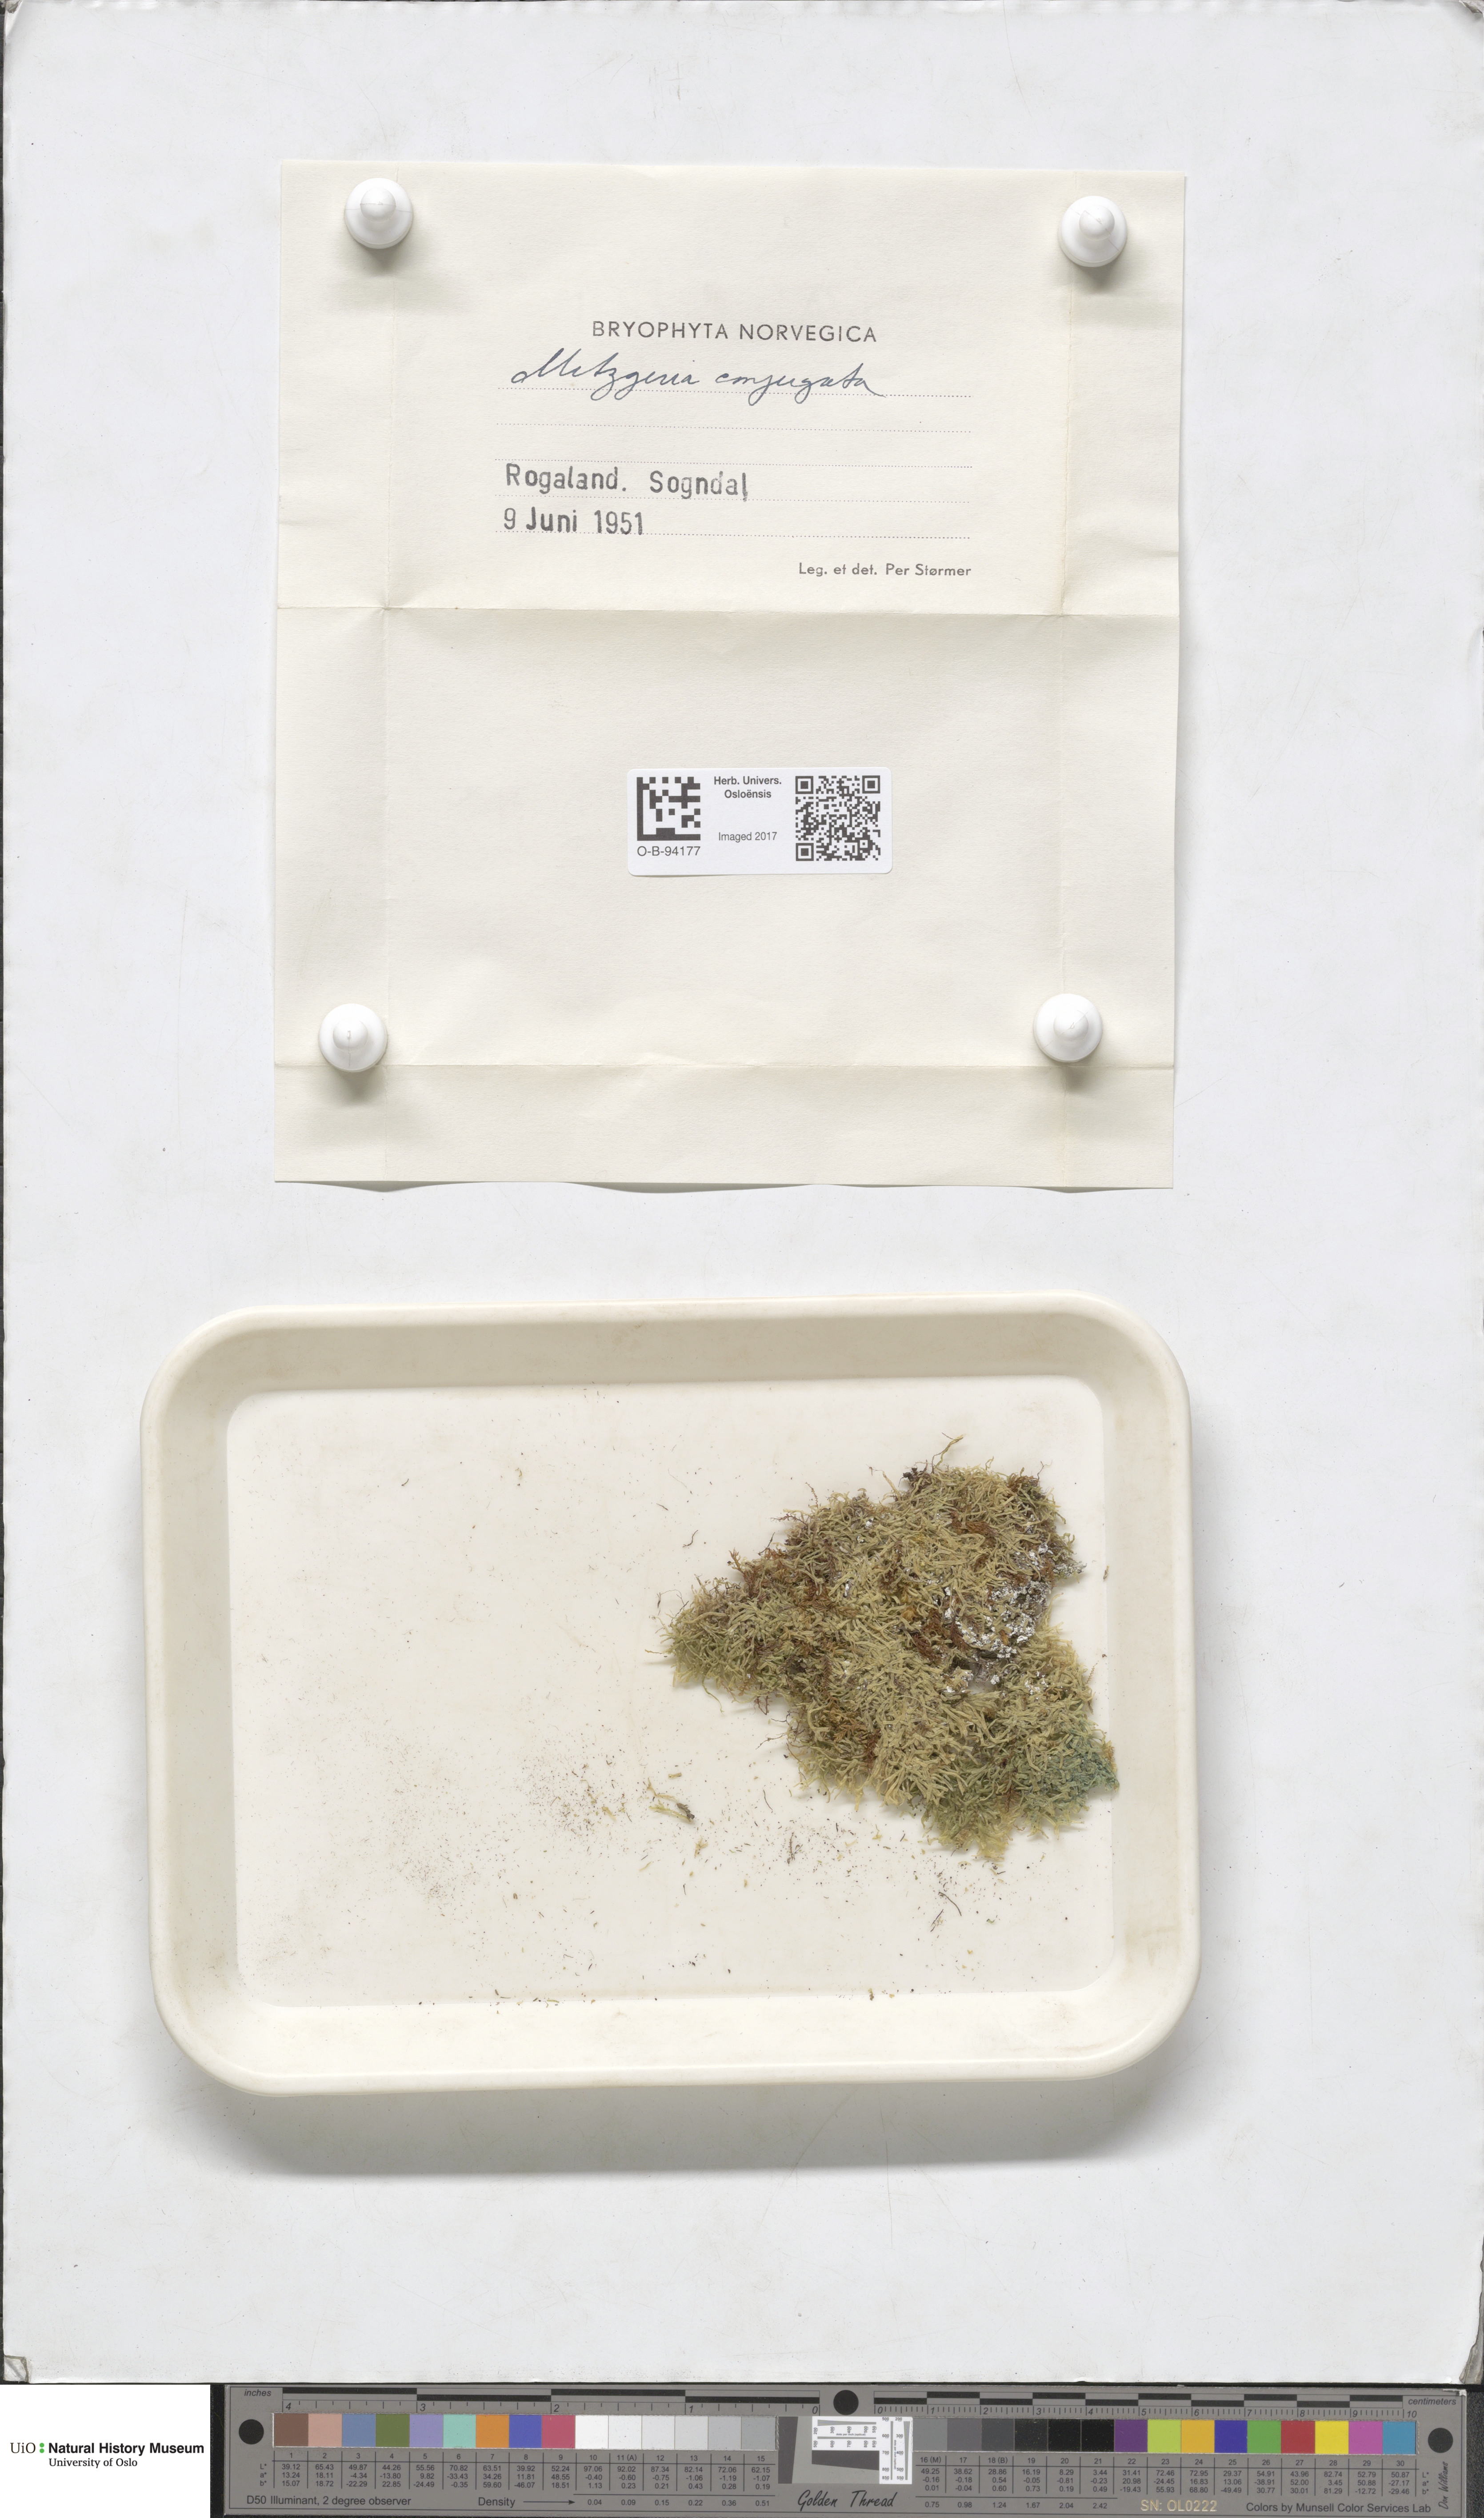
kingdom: Plantae
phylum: Marchantiophyta
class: Jungermanniopsida
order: Metzgeriales
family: Metzgeriaceae
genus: Metzgeria
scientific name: Metzgeria conjugata
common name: Rock veilwort
